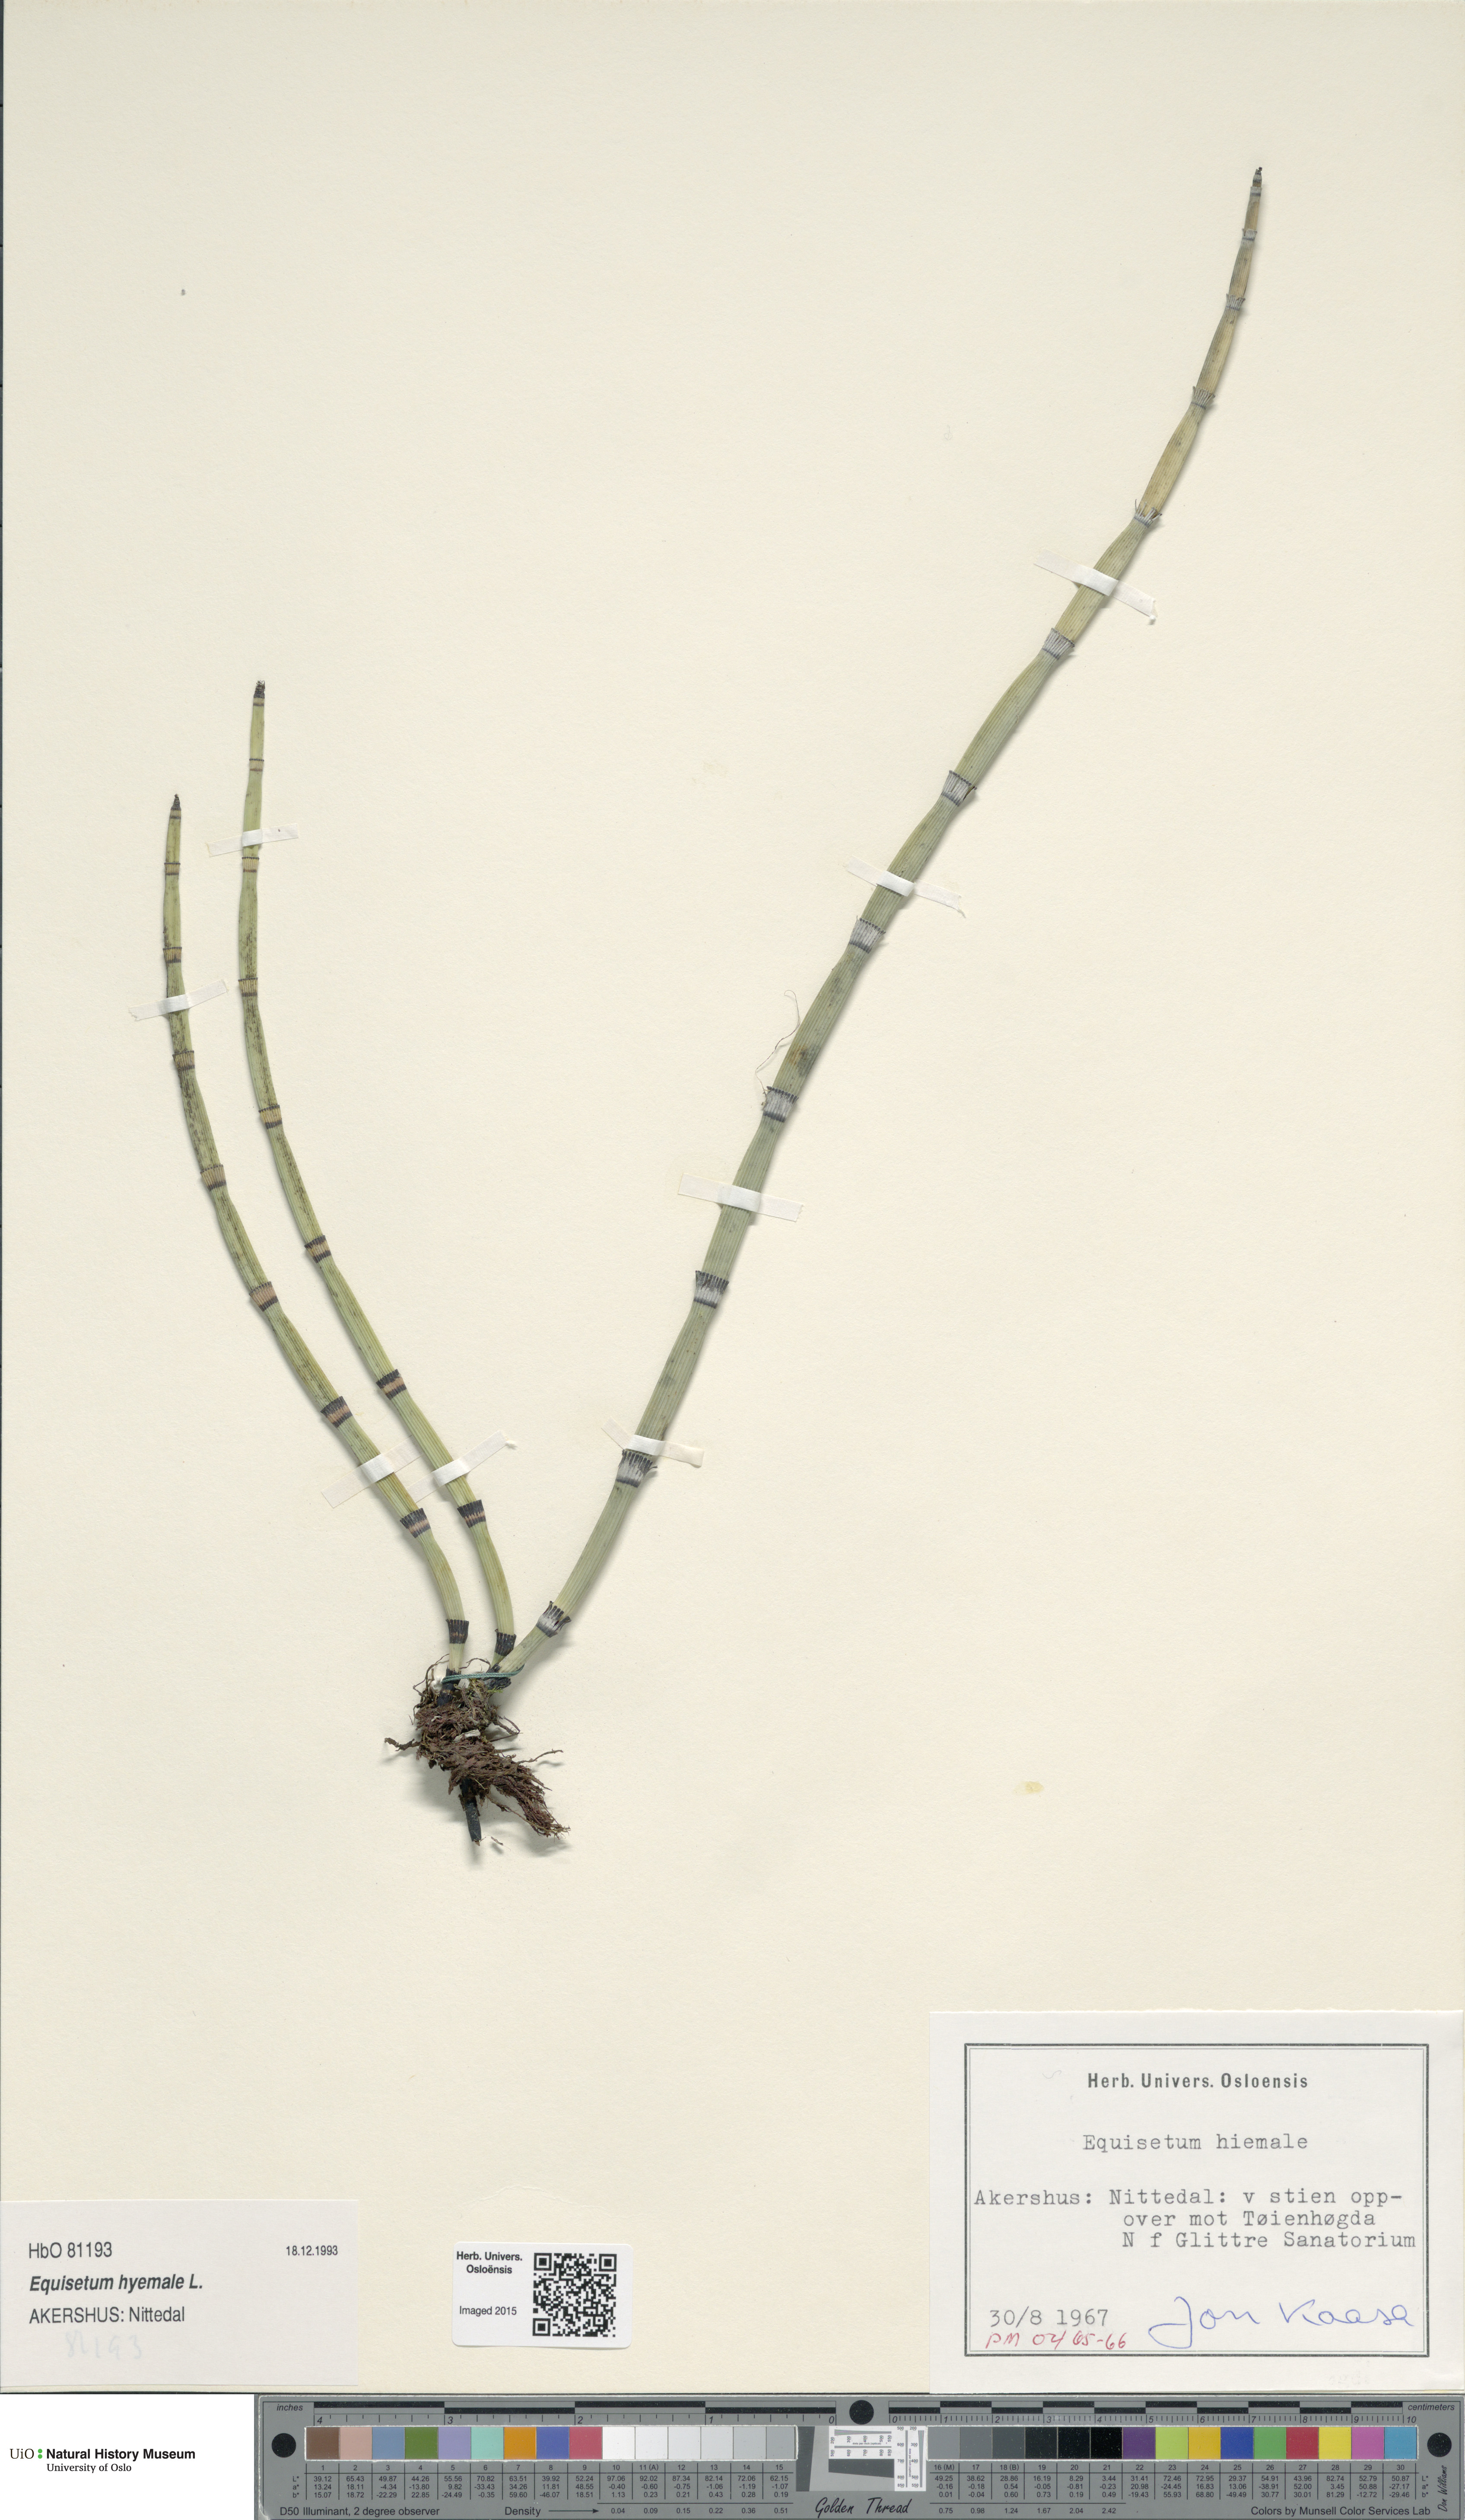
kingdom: Plantae
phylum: Tracheophyta
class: Polypodiopsida
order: Equisetales
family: Equisetaceae
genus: Equisetum
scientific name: Equisetum hyemale
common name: Rough horsetail
